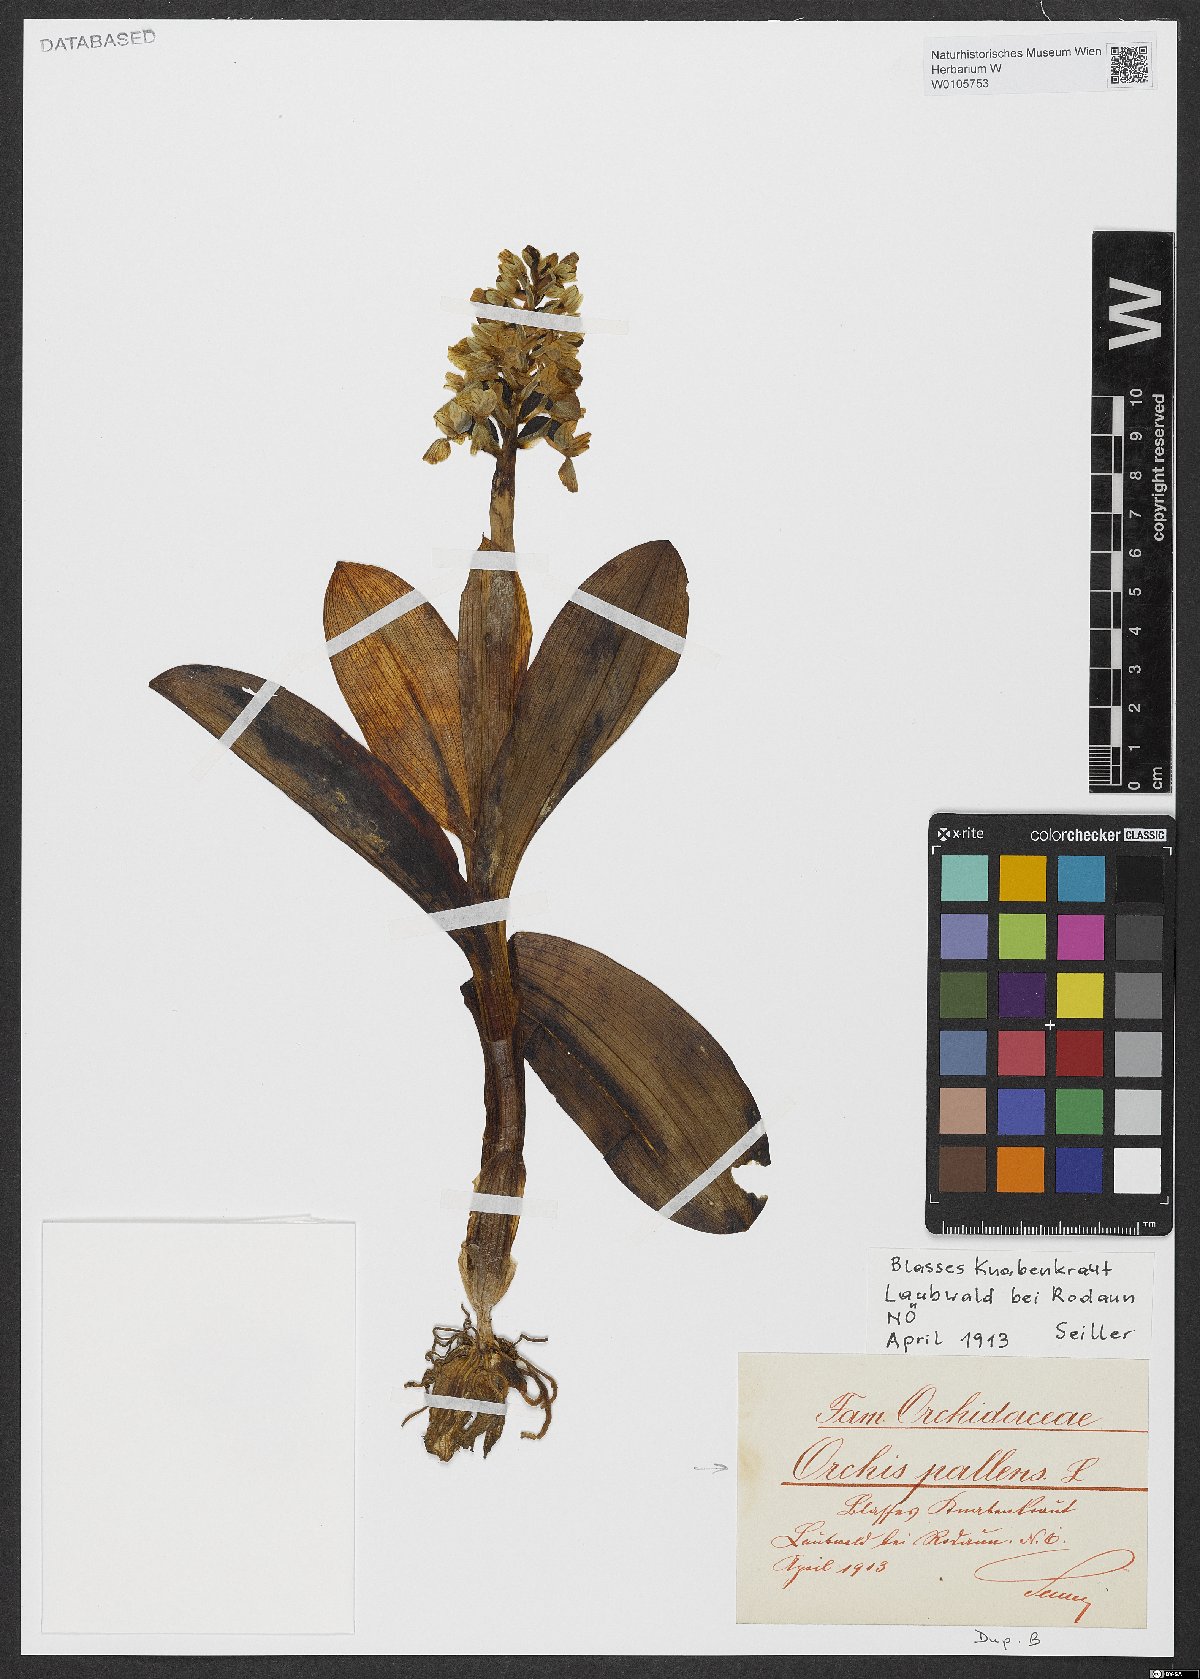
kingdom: Plantae
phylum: Tracheophyta
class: Liliopsida
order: Asparagales
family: Orchidaceae
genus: Orchis
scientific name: Orchis pallens
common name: Pale-flowered orchid
